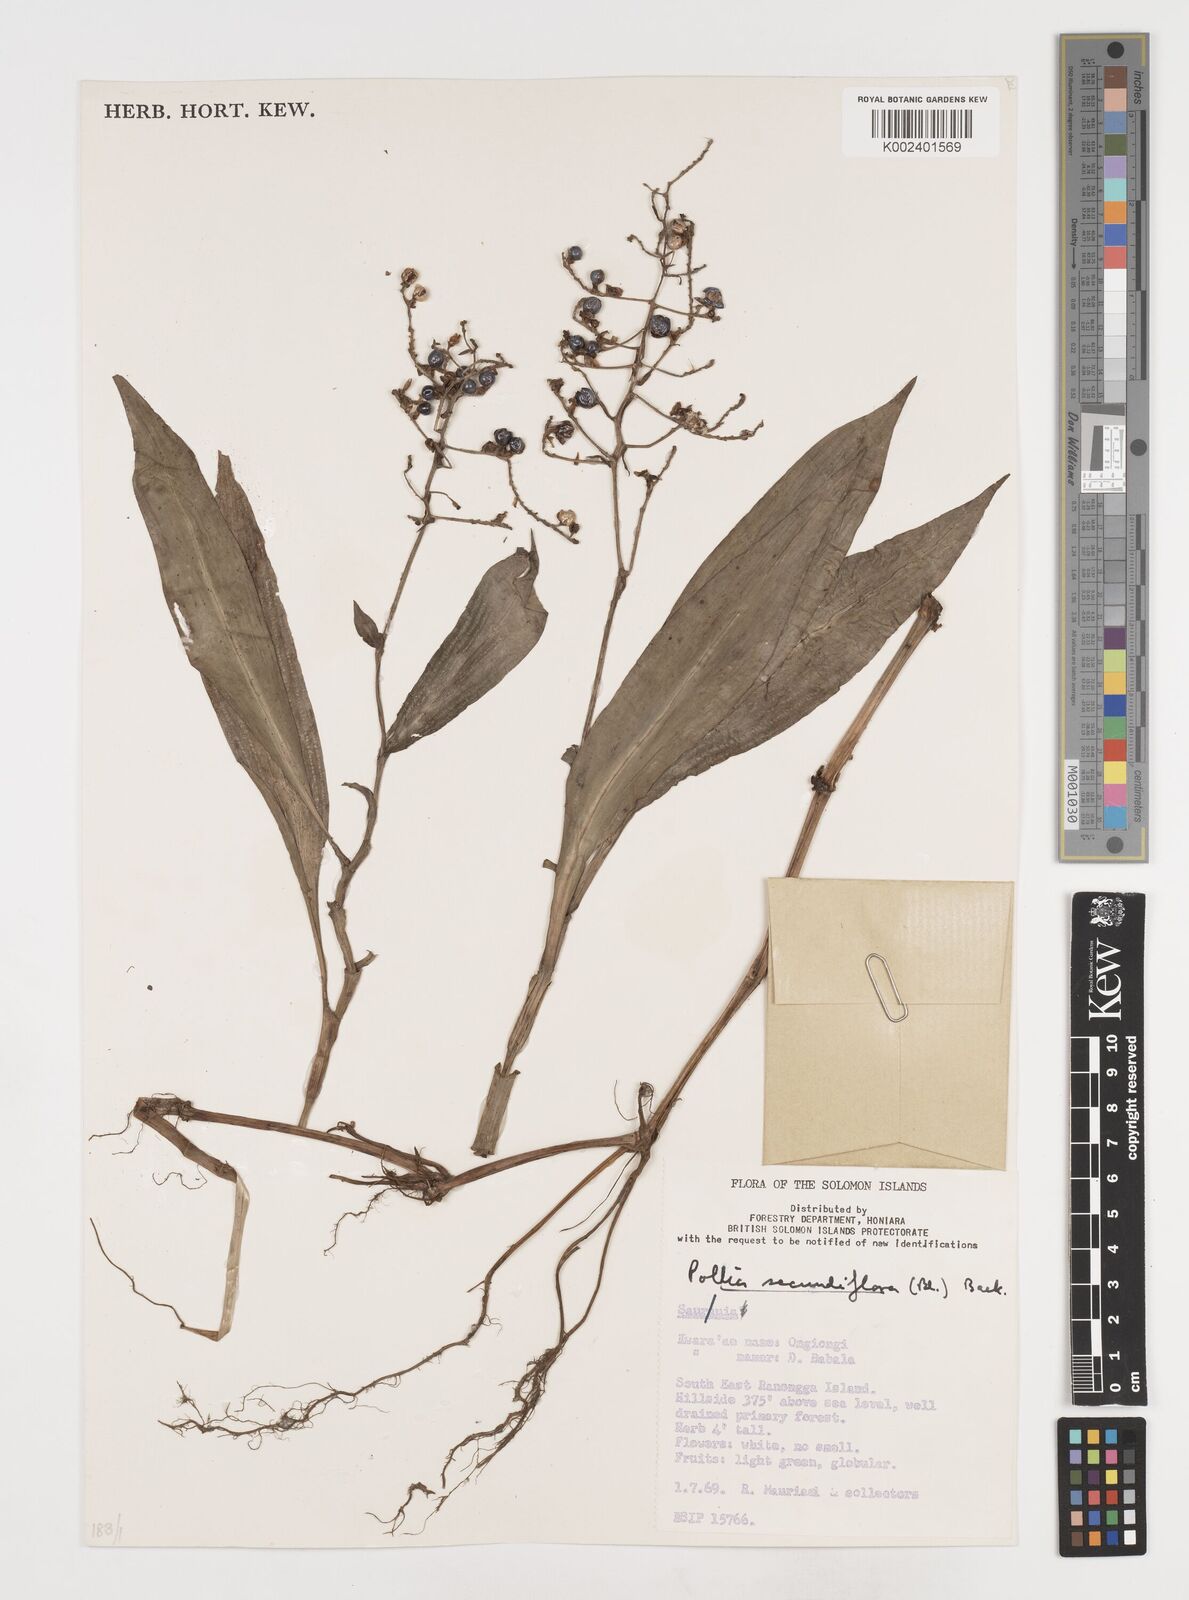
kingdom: Plantae
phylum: Tracheophyta
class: Liliopsida
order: Commelinales
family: Commelinaceae
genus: Pollia
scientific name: Pollia secundiflora
